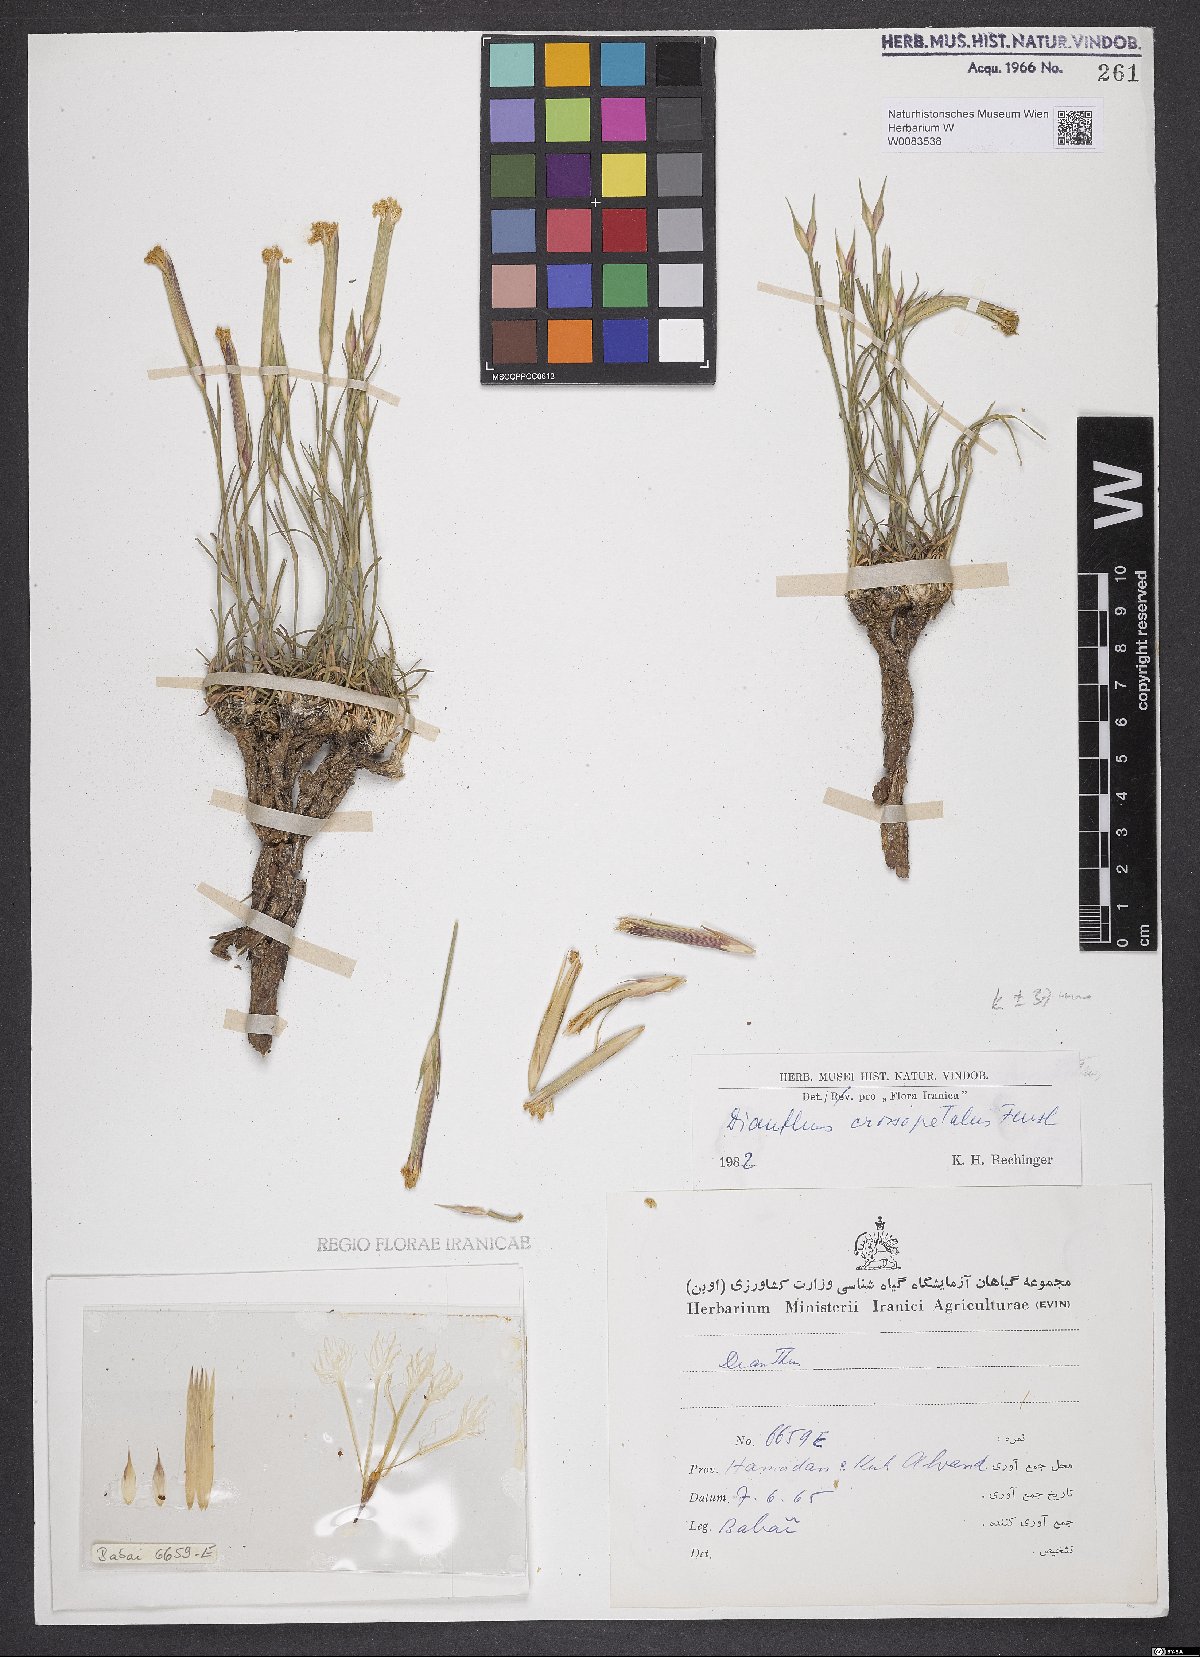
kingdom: Plantae
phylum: Tracheophyta
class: Magnoliopsida
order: Caryophyllales
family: Caryophyllaceae
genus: Dianthus
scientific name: Dianthus crossopetalus
